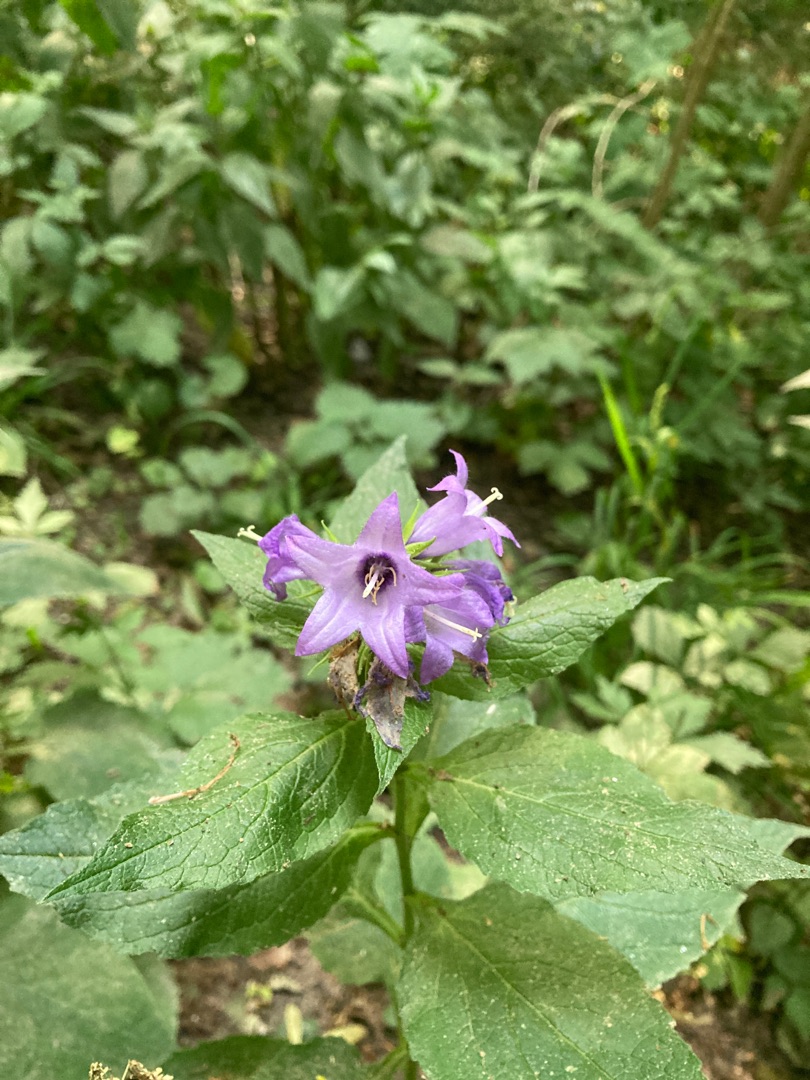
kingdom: Plantae
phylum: Tracheophyta
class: Magnoliopsida
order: Asterales
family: Campanulaceae
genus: Campanula
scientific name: Campanula latifolia
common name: Bredbladet klokke
